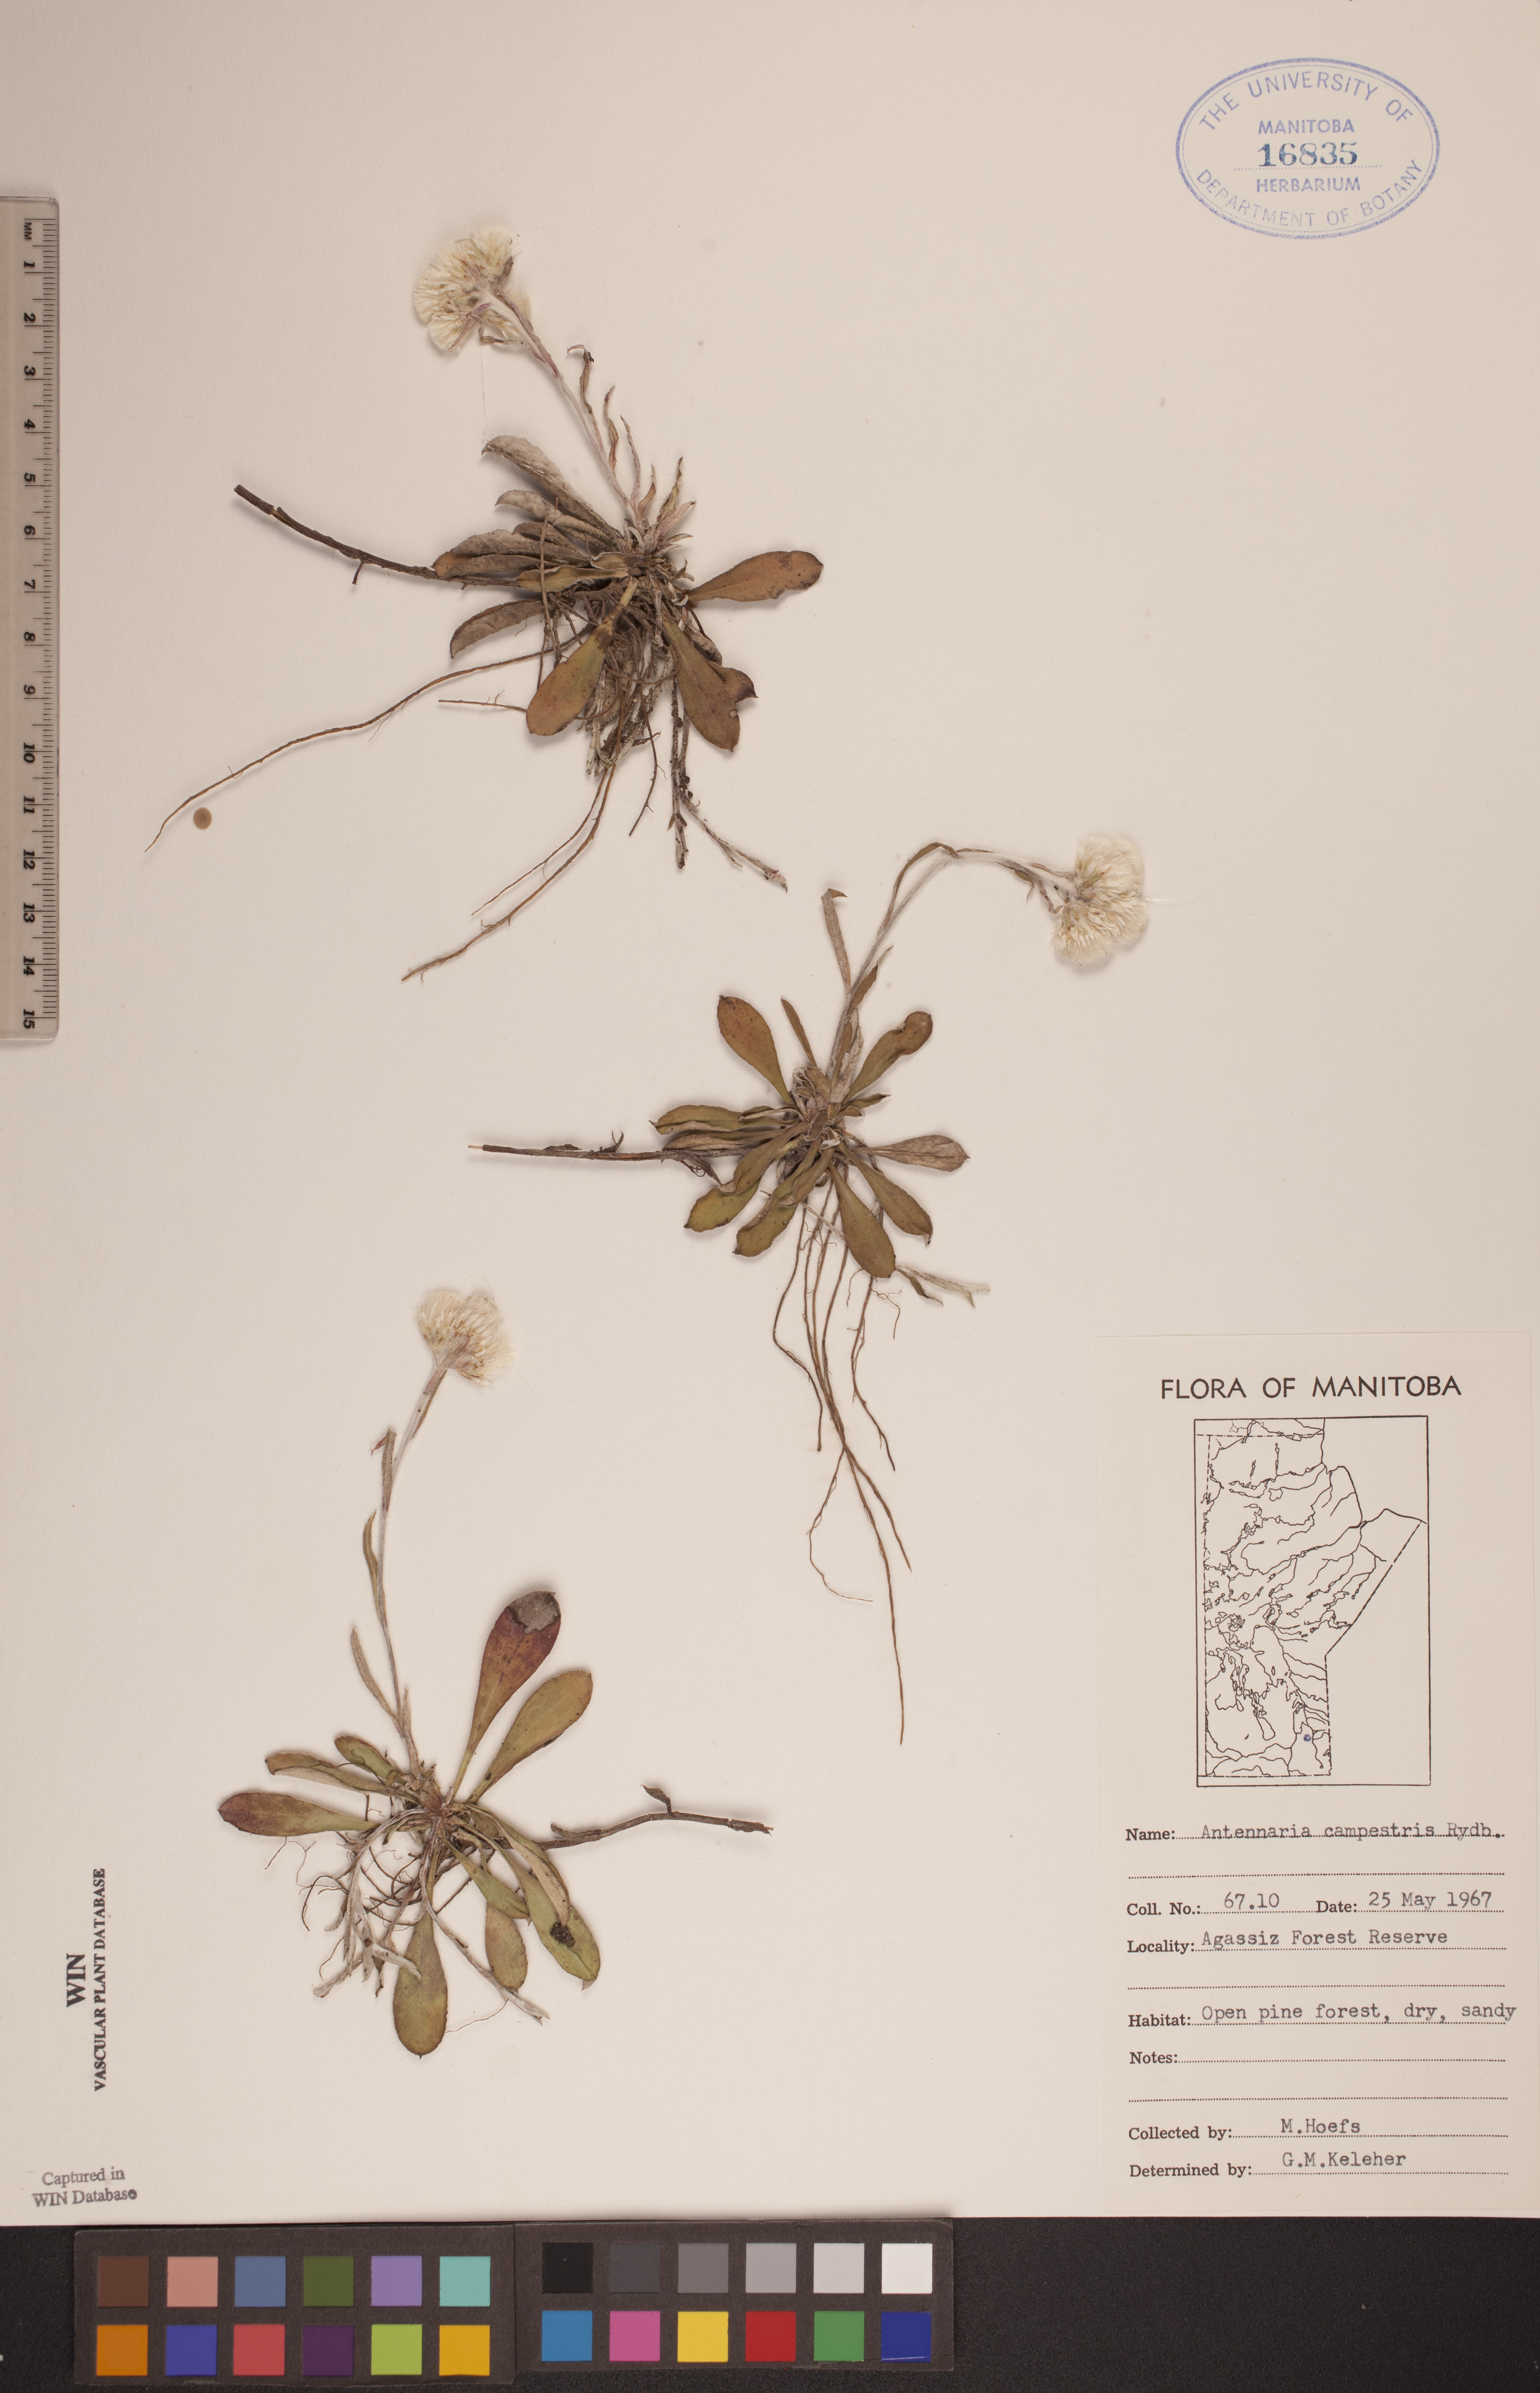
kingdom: Plantae
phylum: Tracheophyta
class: Magnoliopsida
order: Asterales
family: Asteraceae
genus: Antennaria
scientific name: Antennaria neglecta
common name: Field pussytoes
